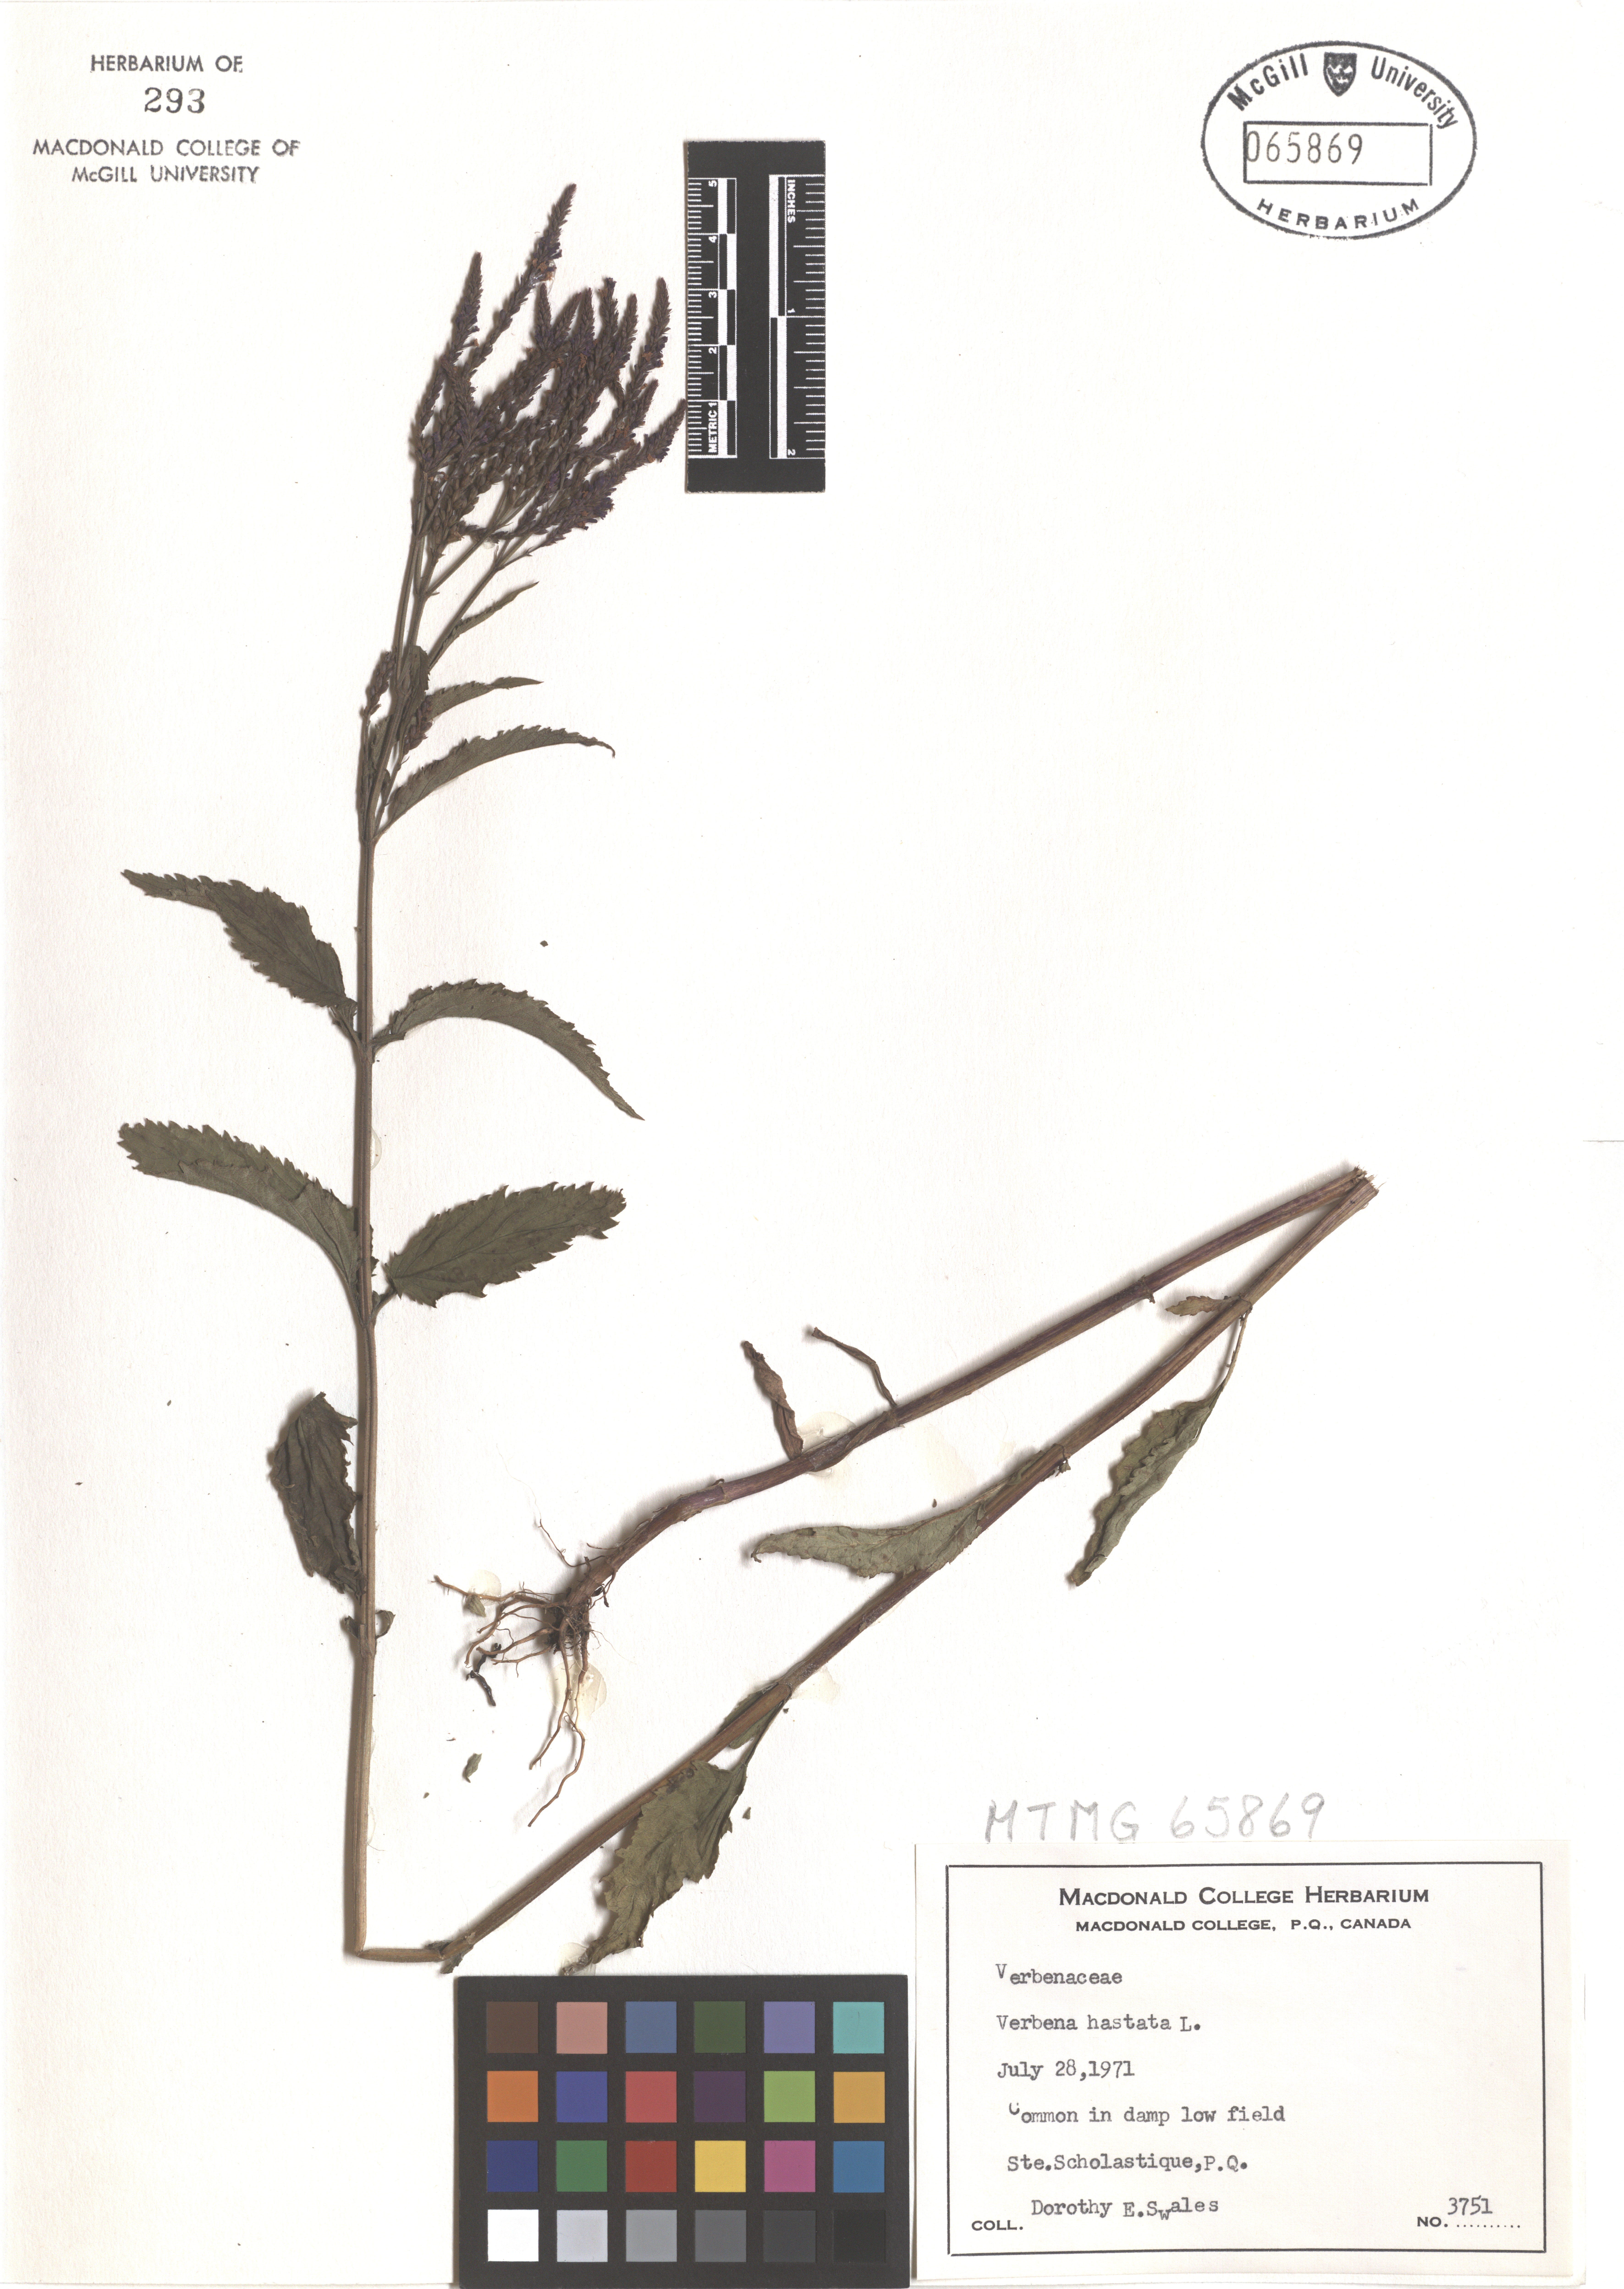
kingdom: Plantae
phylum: Tracheophyta
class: Magnoliopsida
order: Lamiales
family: Verbenaceae
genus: Verbena
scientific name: Verbena hastata
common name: American blue vervain
